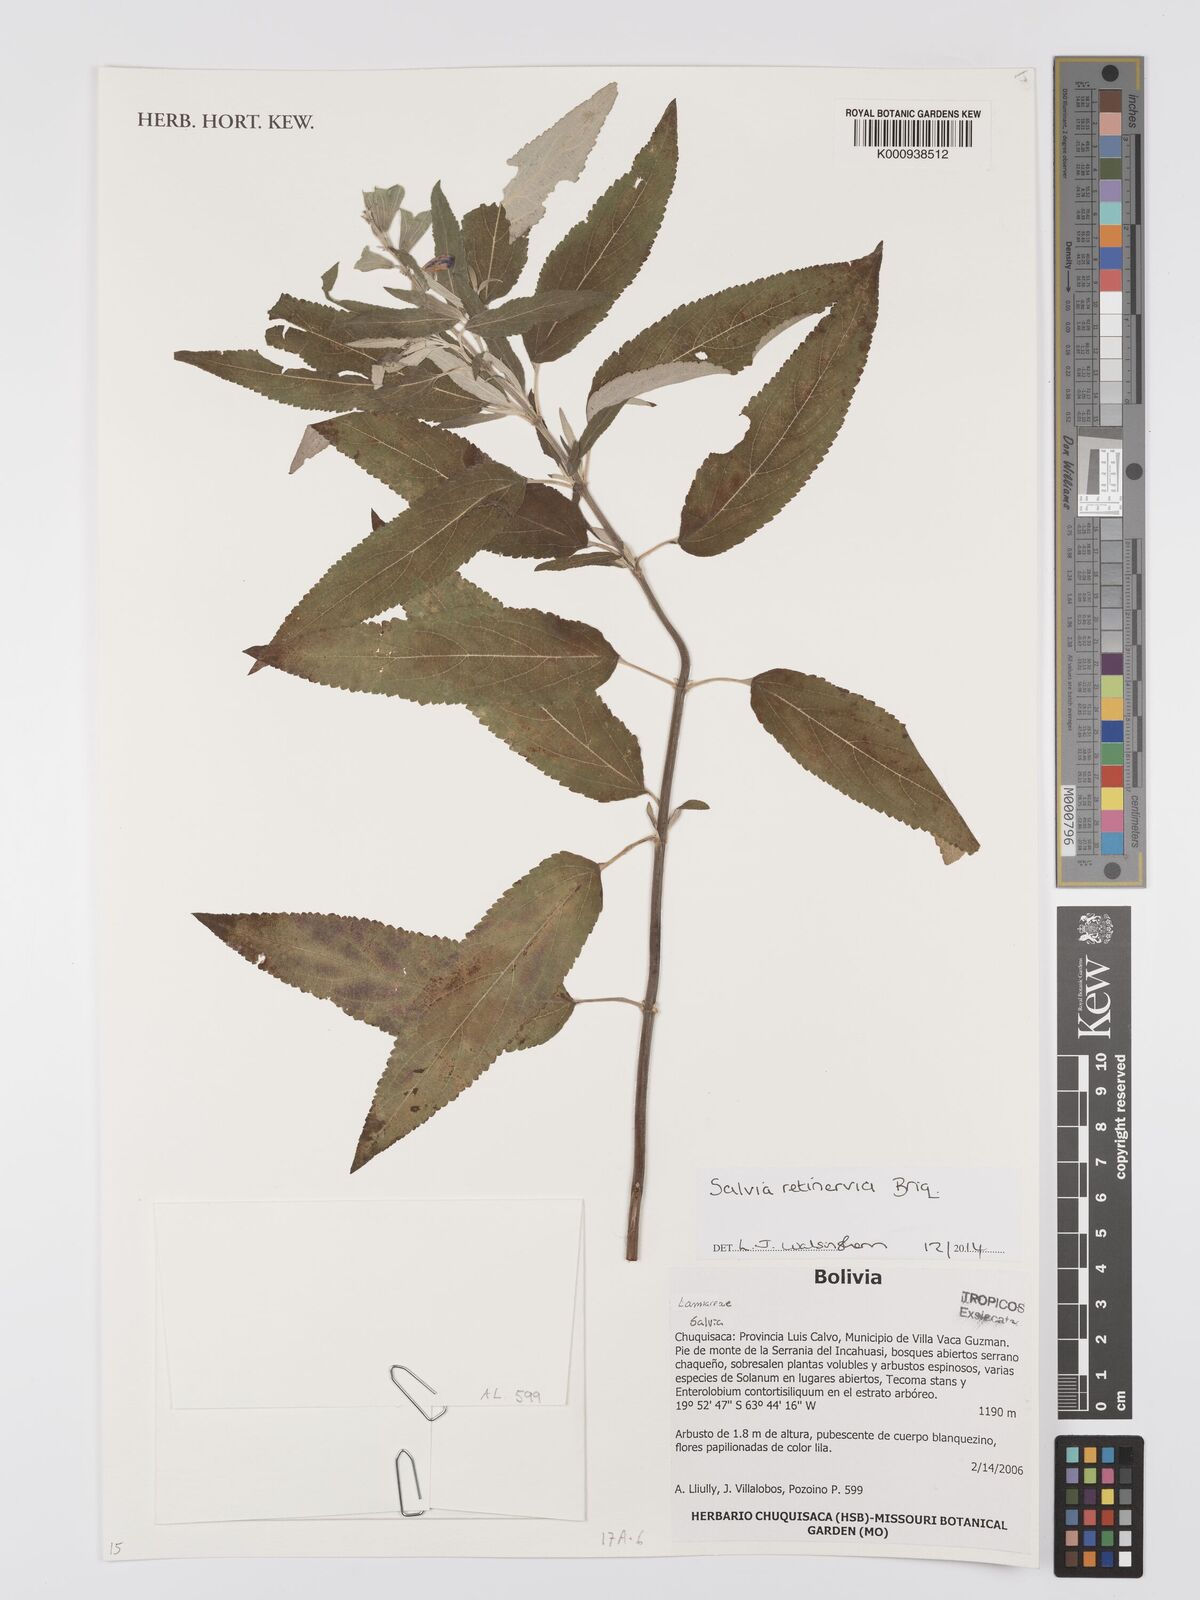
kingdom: Plantae
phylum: Tracheophyta
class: Magnoliopsida
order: Lamiales
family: Lamiaceae
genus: Salvia
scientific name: Salvia retinervia
